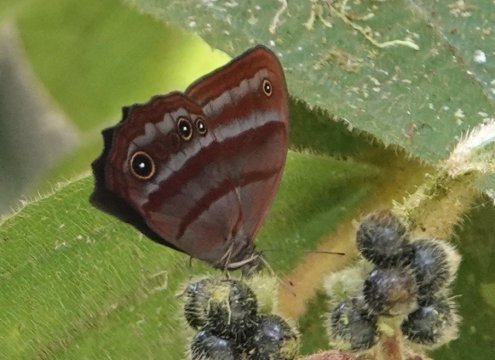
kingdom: Animalia
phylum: Arthropoda
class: Insecta
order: Lepidoptera
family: Nymphalidae
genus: Magneuptychia
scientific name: Magneuptychia tiessa
